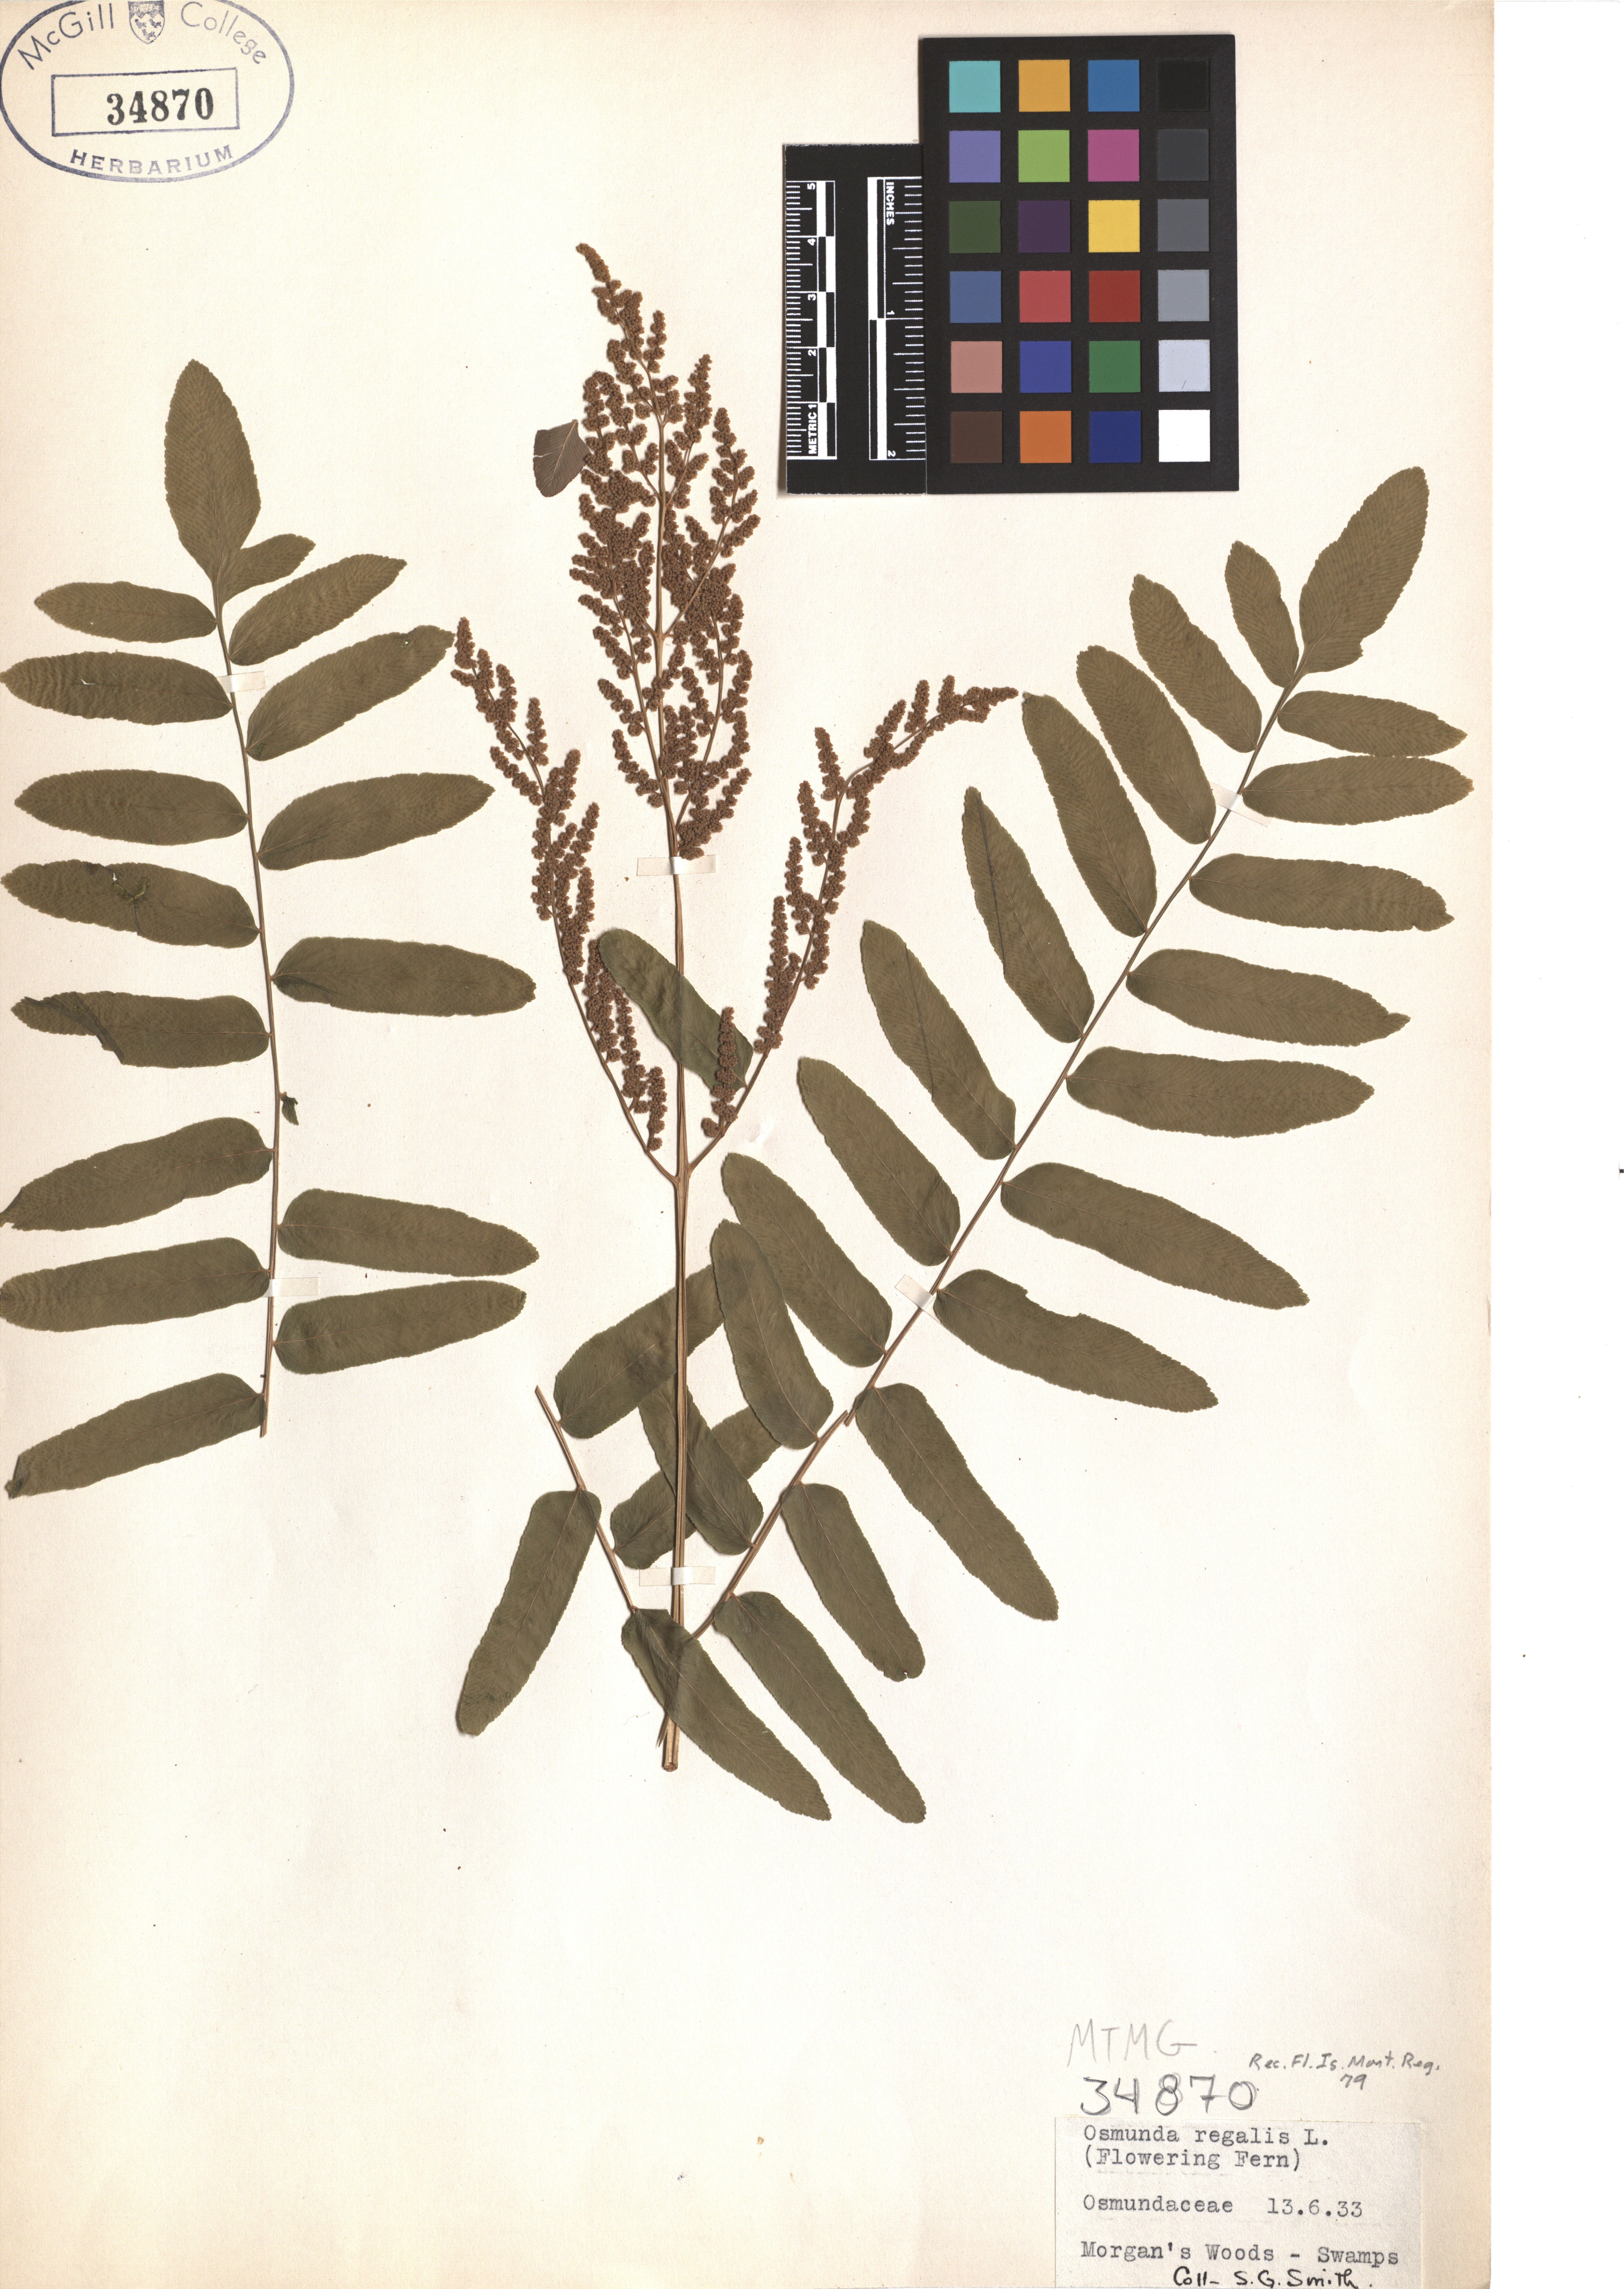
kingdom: Plantae
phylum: Tracheophyta
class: Polypodiopsida
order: Osmundales
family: Osmundaceae
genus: Osmunda
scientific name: Osmunda regalis
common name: Royal fern
